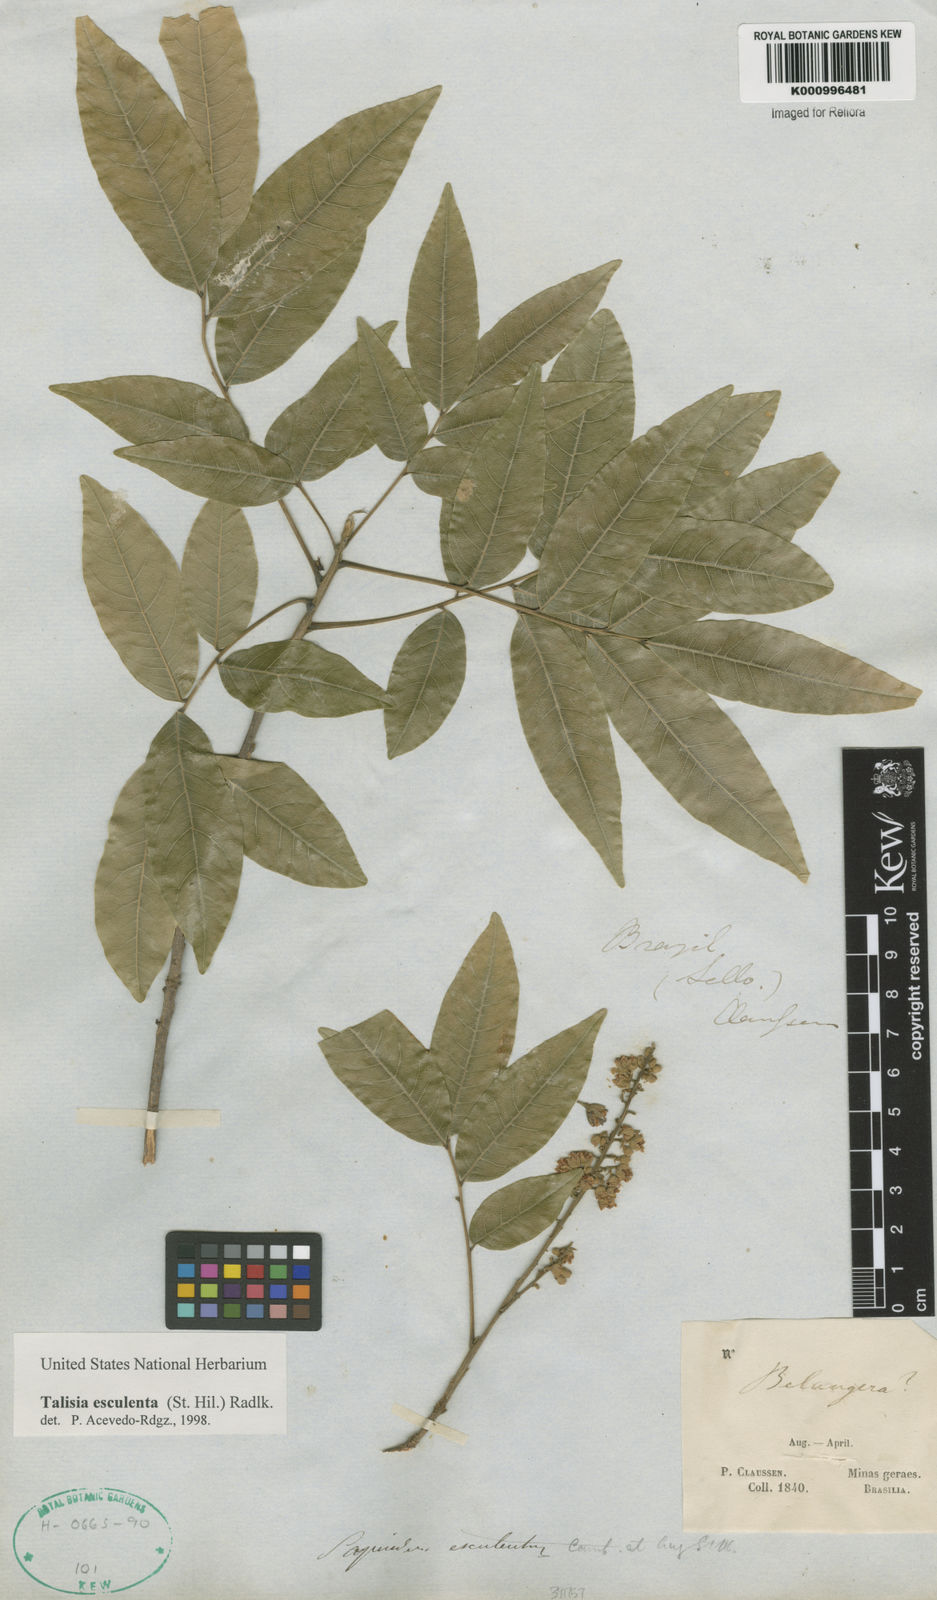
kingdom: Plantae
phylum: Tracheophyta
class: Magnoliopsida
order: Sapindales
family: Sapindaceae
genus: Talisia
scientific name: Talisia
